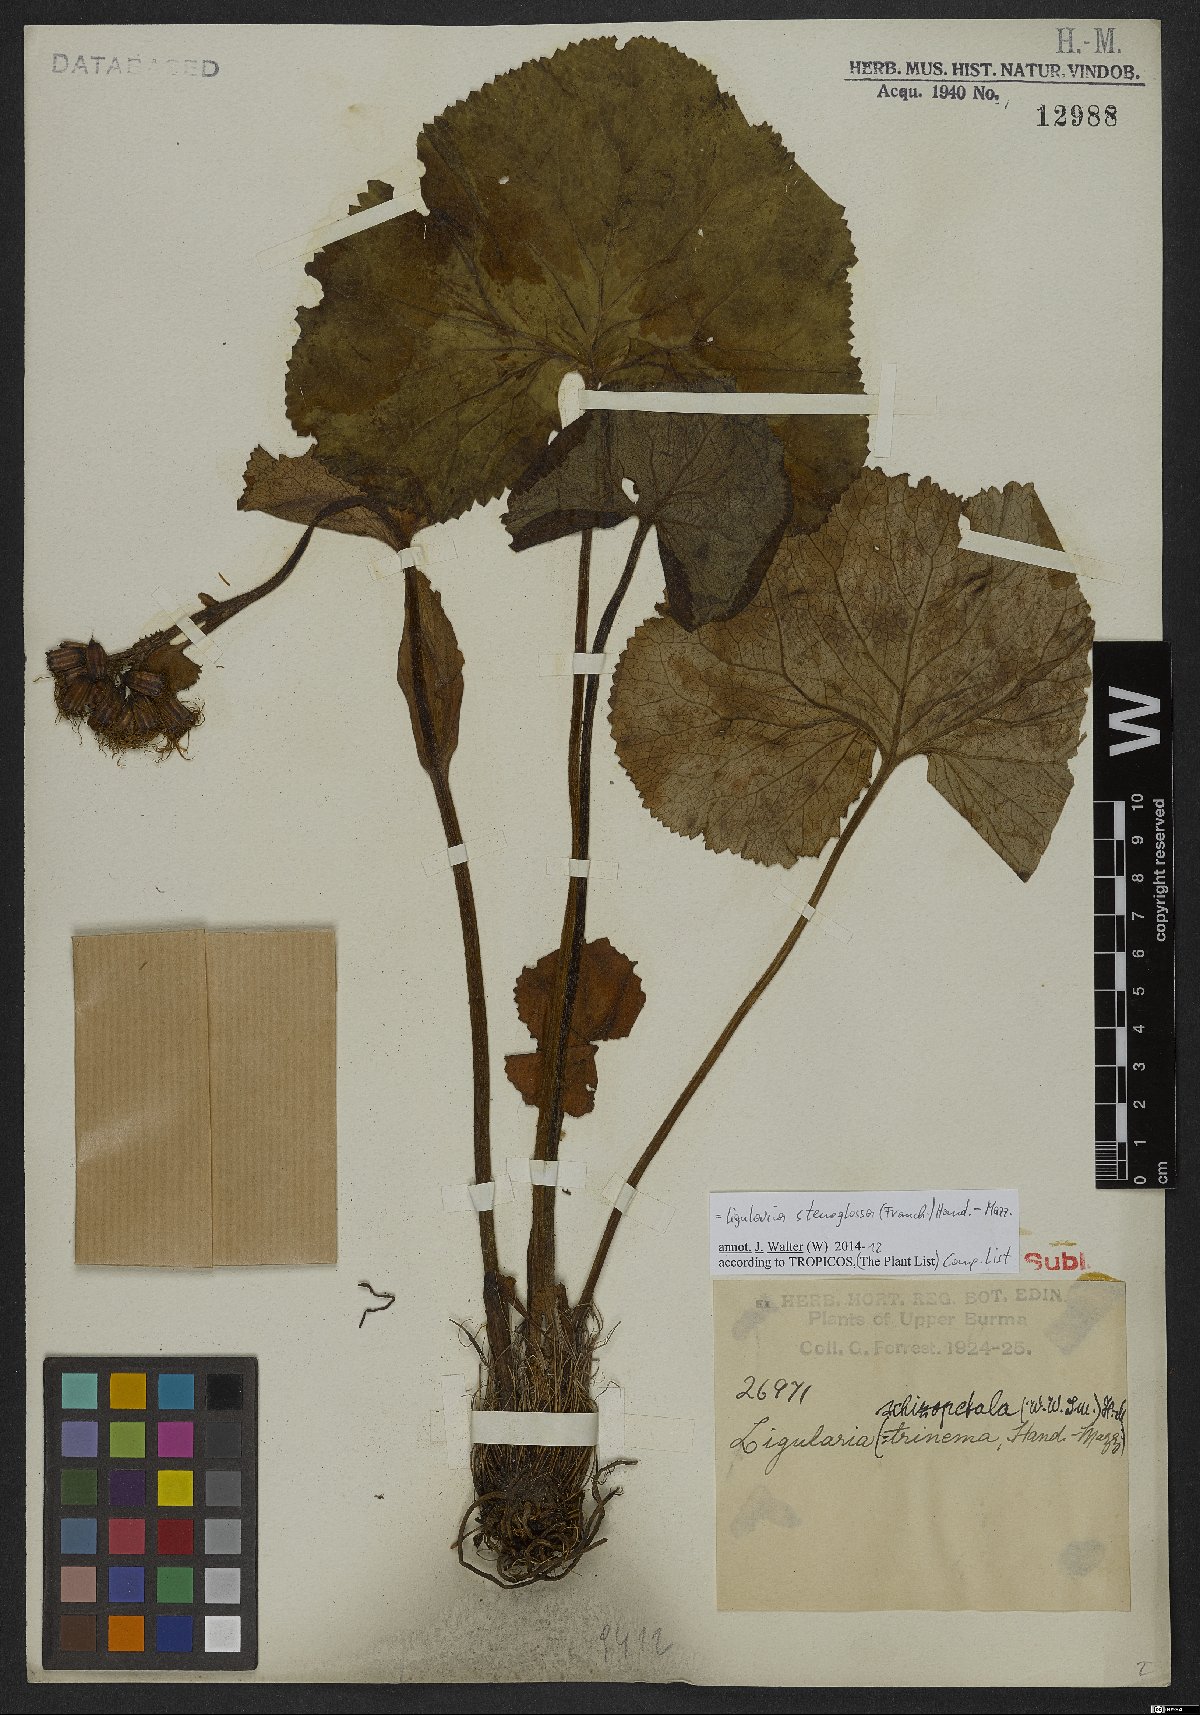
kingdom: Plantae
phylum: Tracheophyta
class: Magnoliopsida
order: Asterales
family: Asteraceae
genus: Ligularia
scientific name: Ligularia stenoglossa
